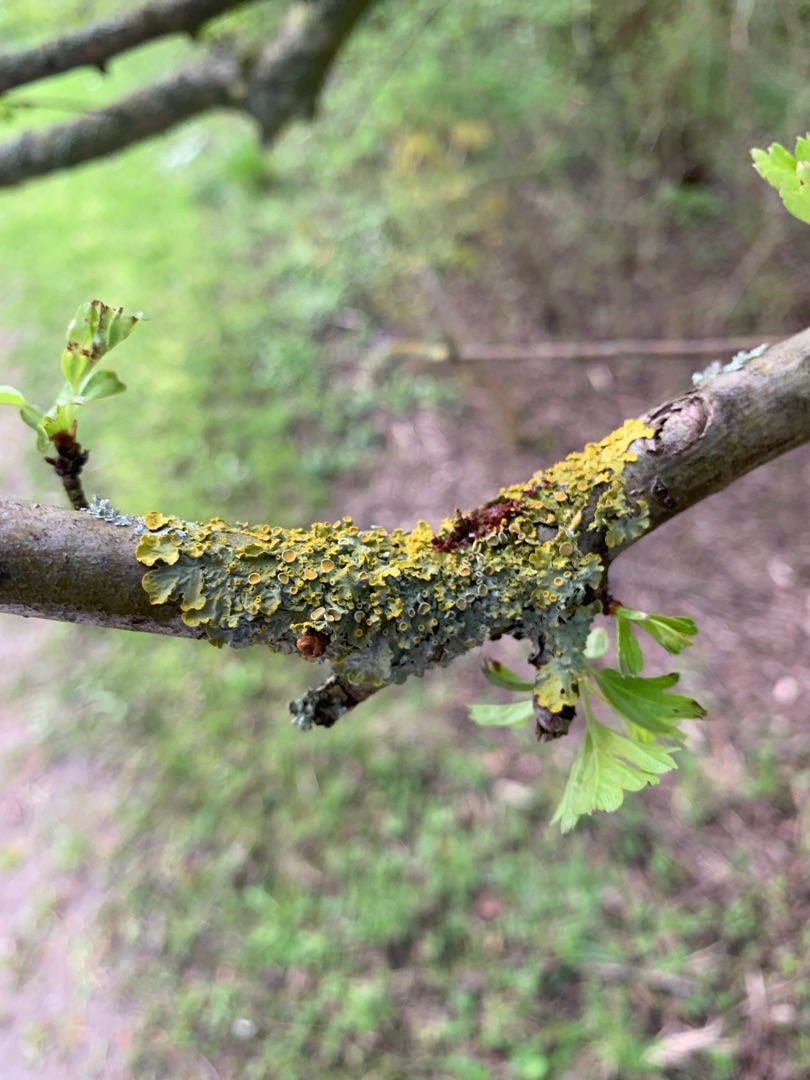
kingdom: Fungi
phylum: Ascomycota
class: Lecanoromycetes
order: Teloschistales
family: Teloschistaceae
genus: Xanthoria
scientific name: Xanthoria parietina
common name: Almindelig væggelav
